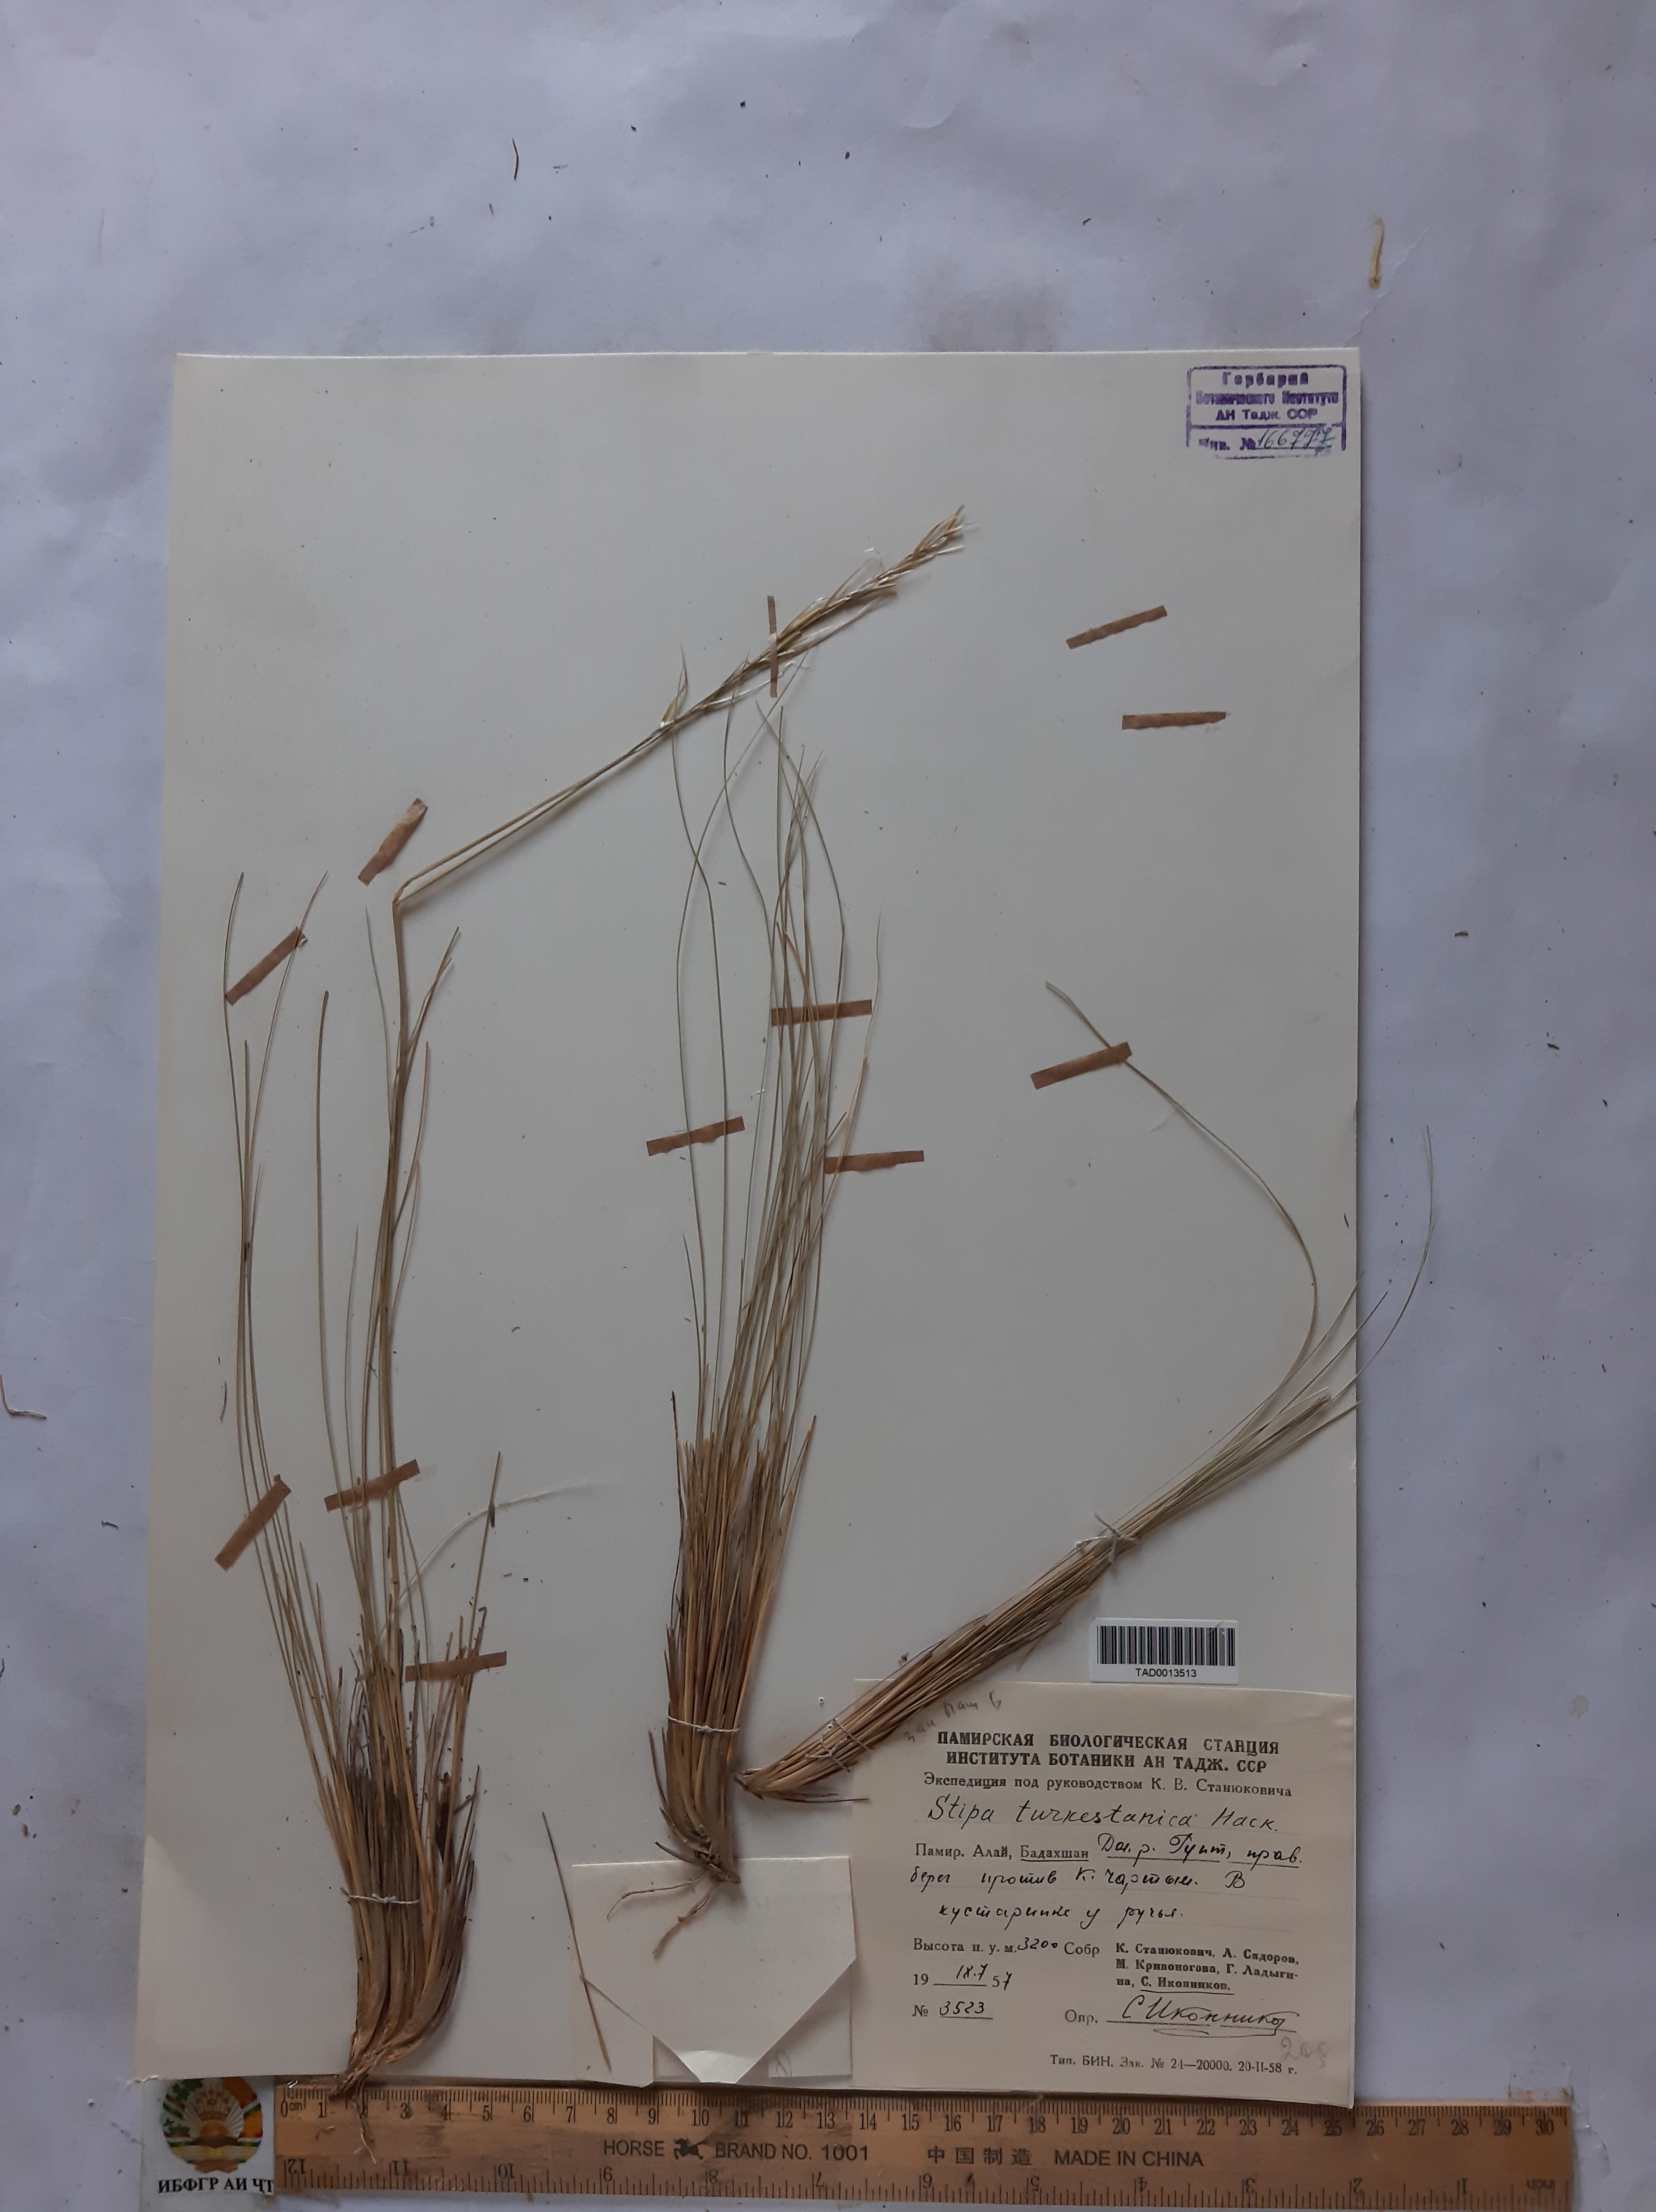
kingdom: Plantae
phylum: Tracheophyta
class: Liliopsida
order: Poales
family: Poaceae
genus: Stipa
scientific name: Stipa turkestanica
